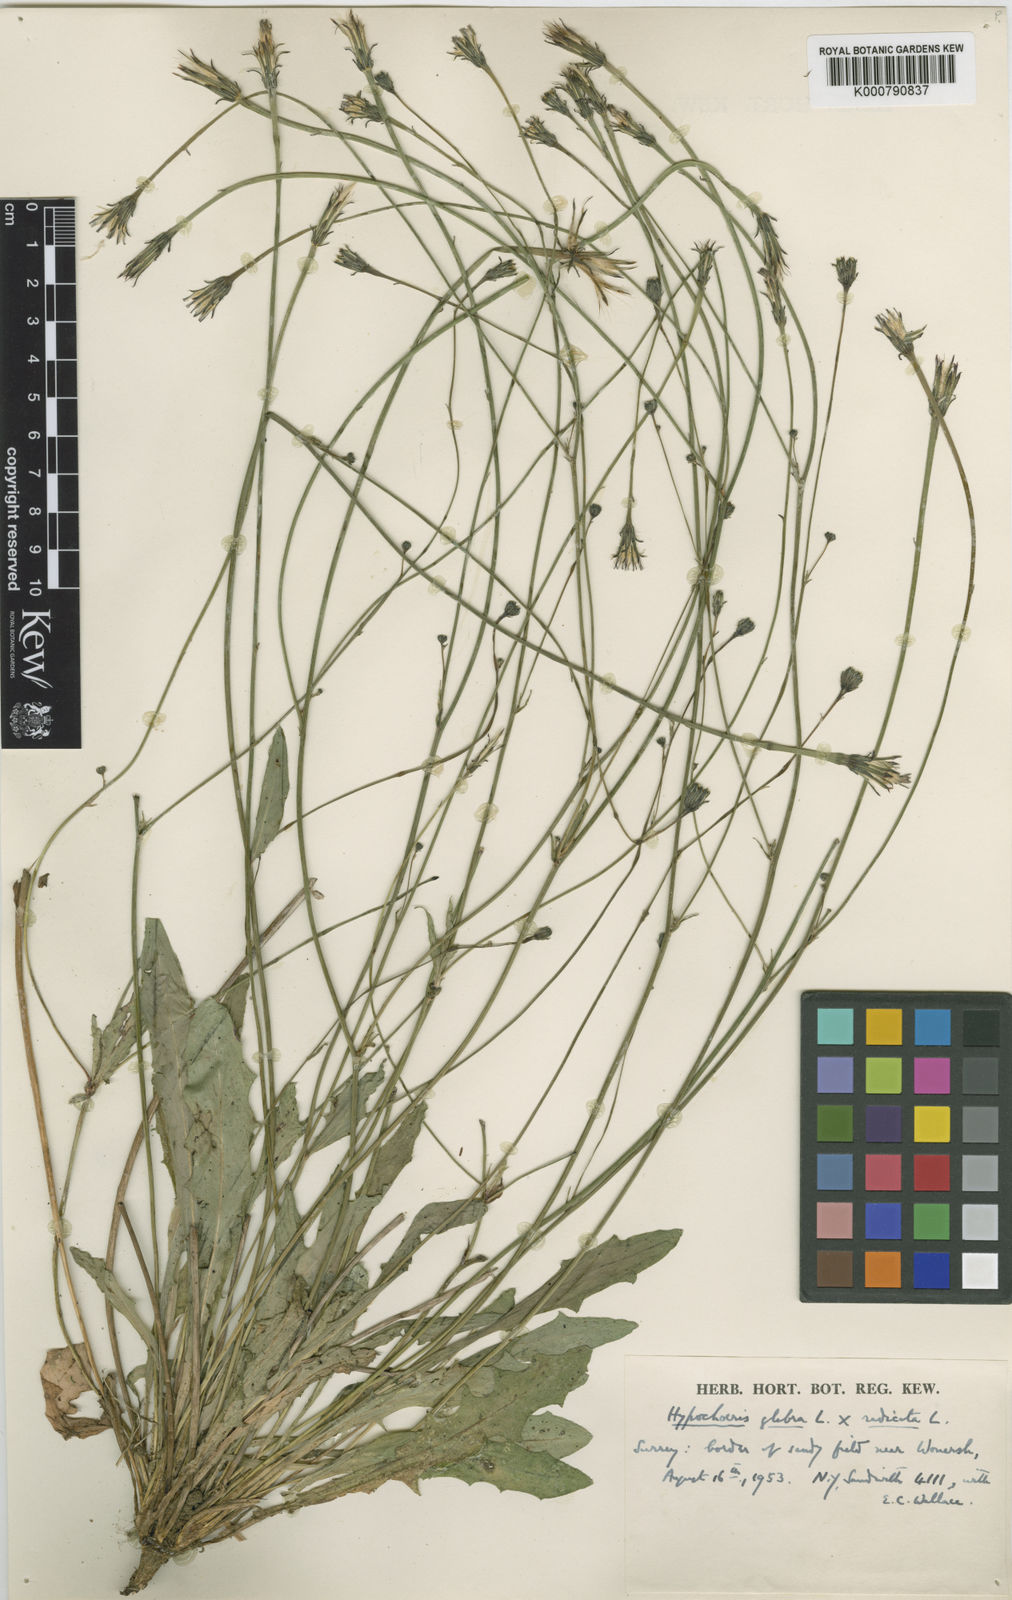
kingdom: Plantae
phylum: Tracheophyta
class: Magnoliopsida
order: Asterales
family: Asteraceae
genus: Hypochaeris
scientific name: Hypochaeris glabra
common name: Smooth catsear
